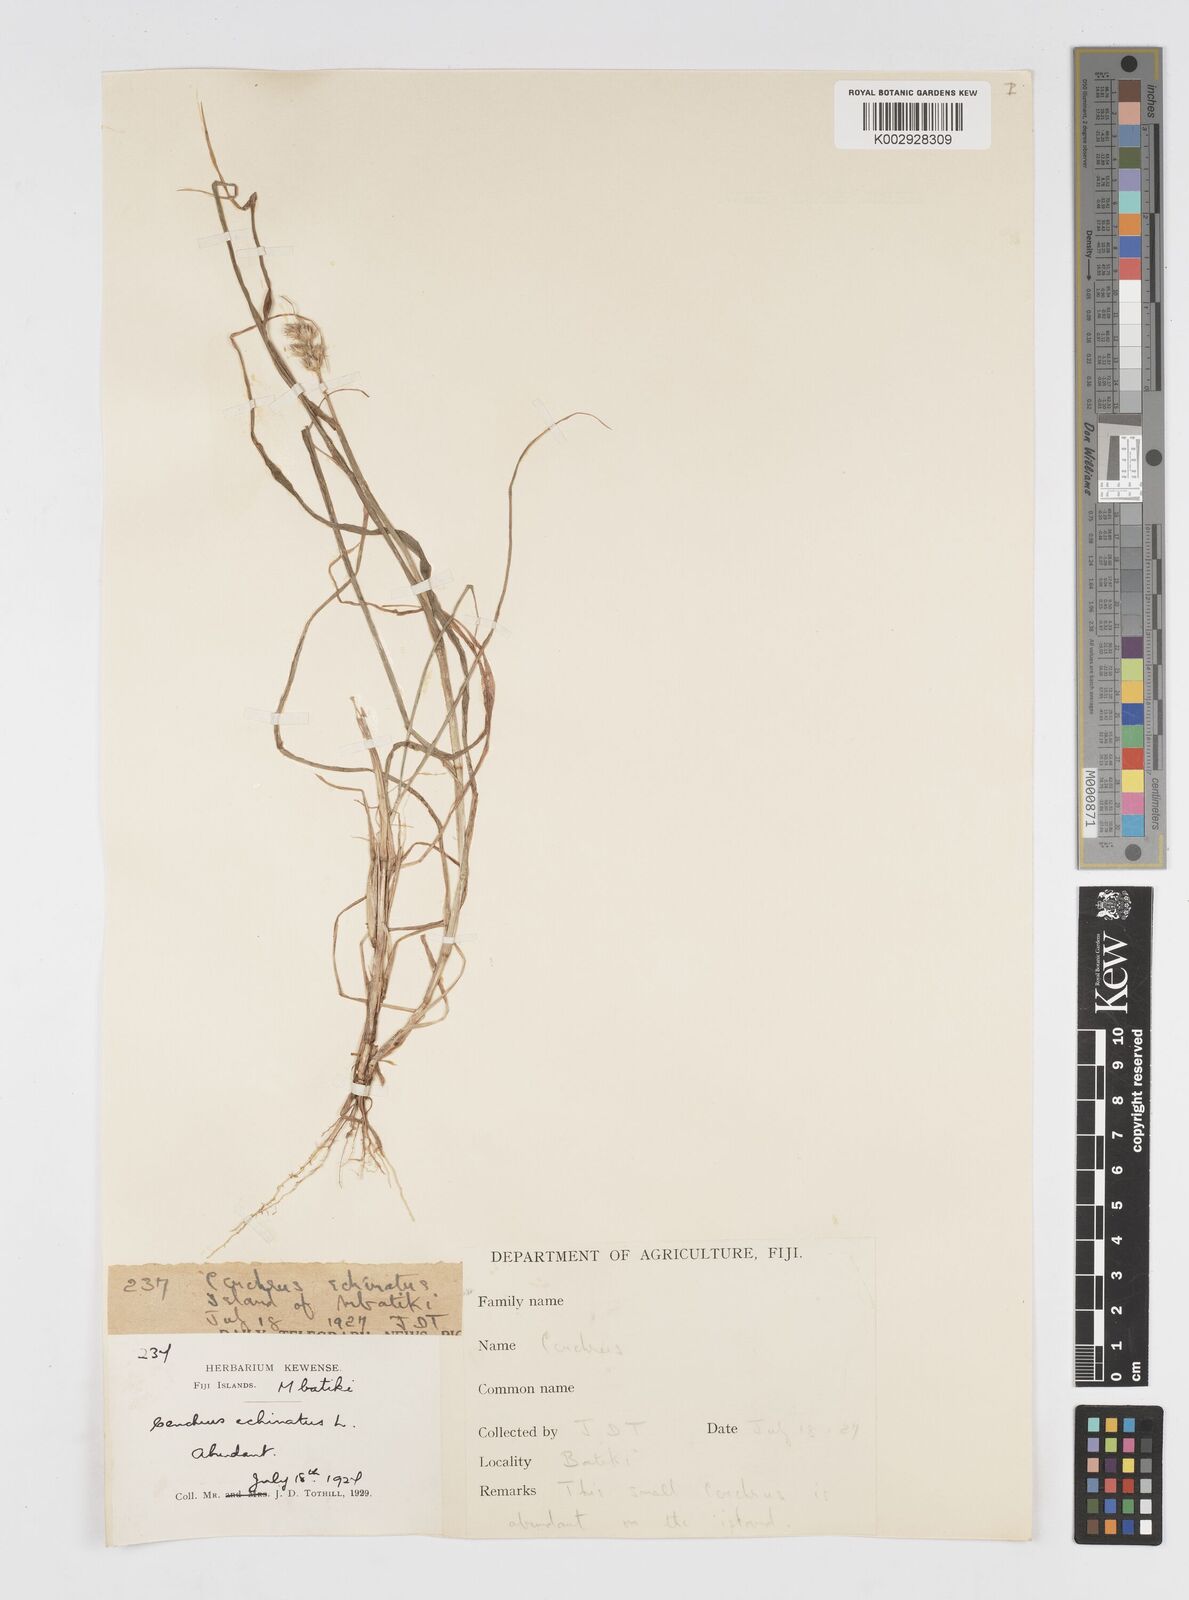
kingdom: Plantae
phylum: Tracheophyta
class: Liliopsida
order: Poales
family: Poaceae
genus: Cenchrus
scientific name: Cenchrus echinatus
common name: Southern sandbur
